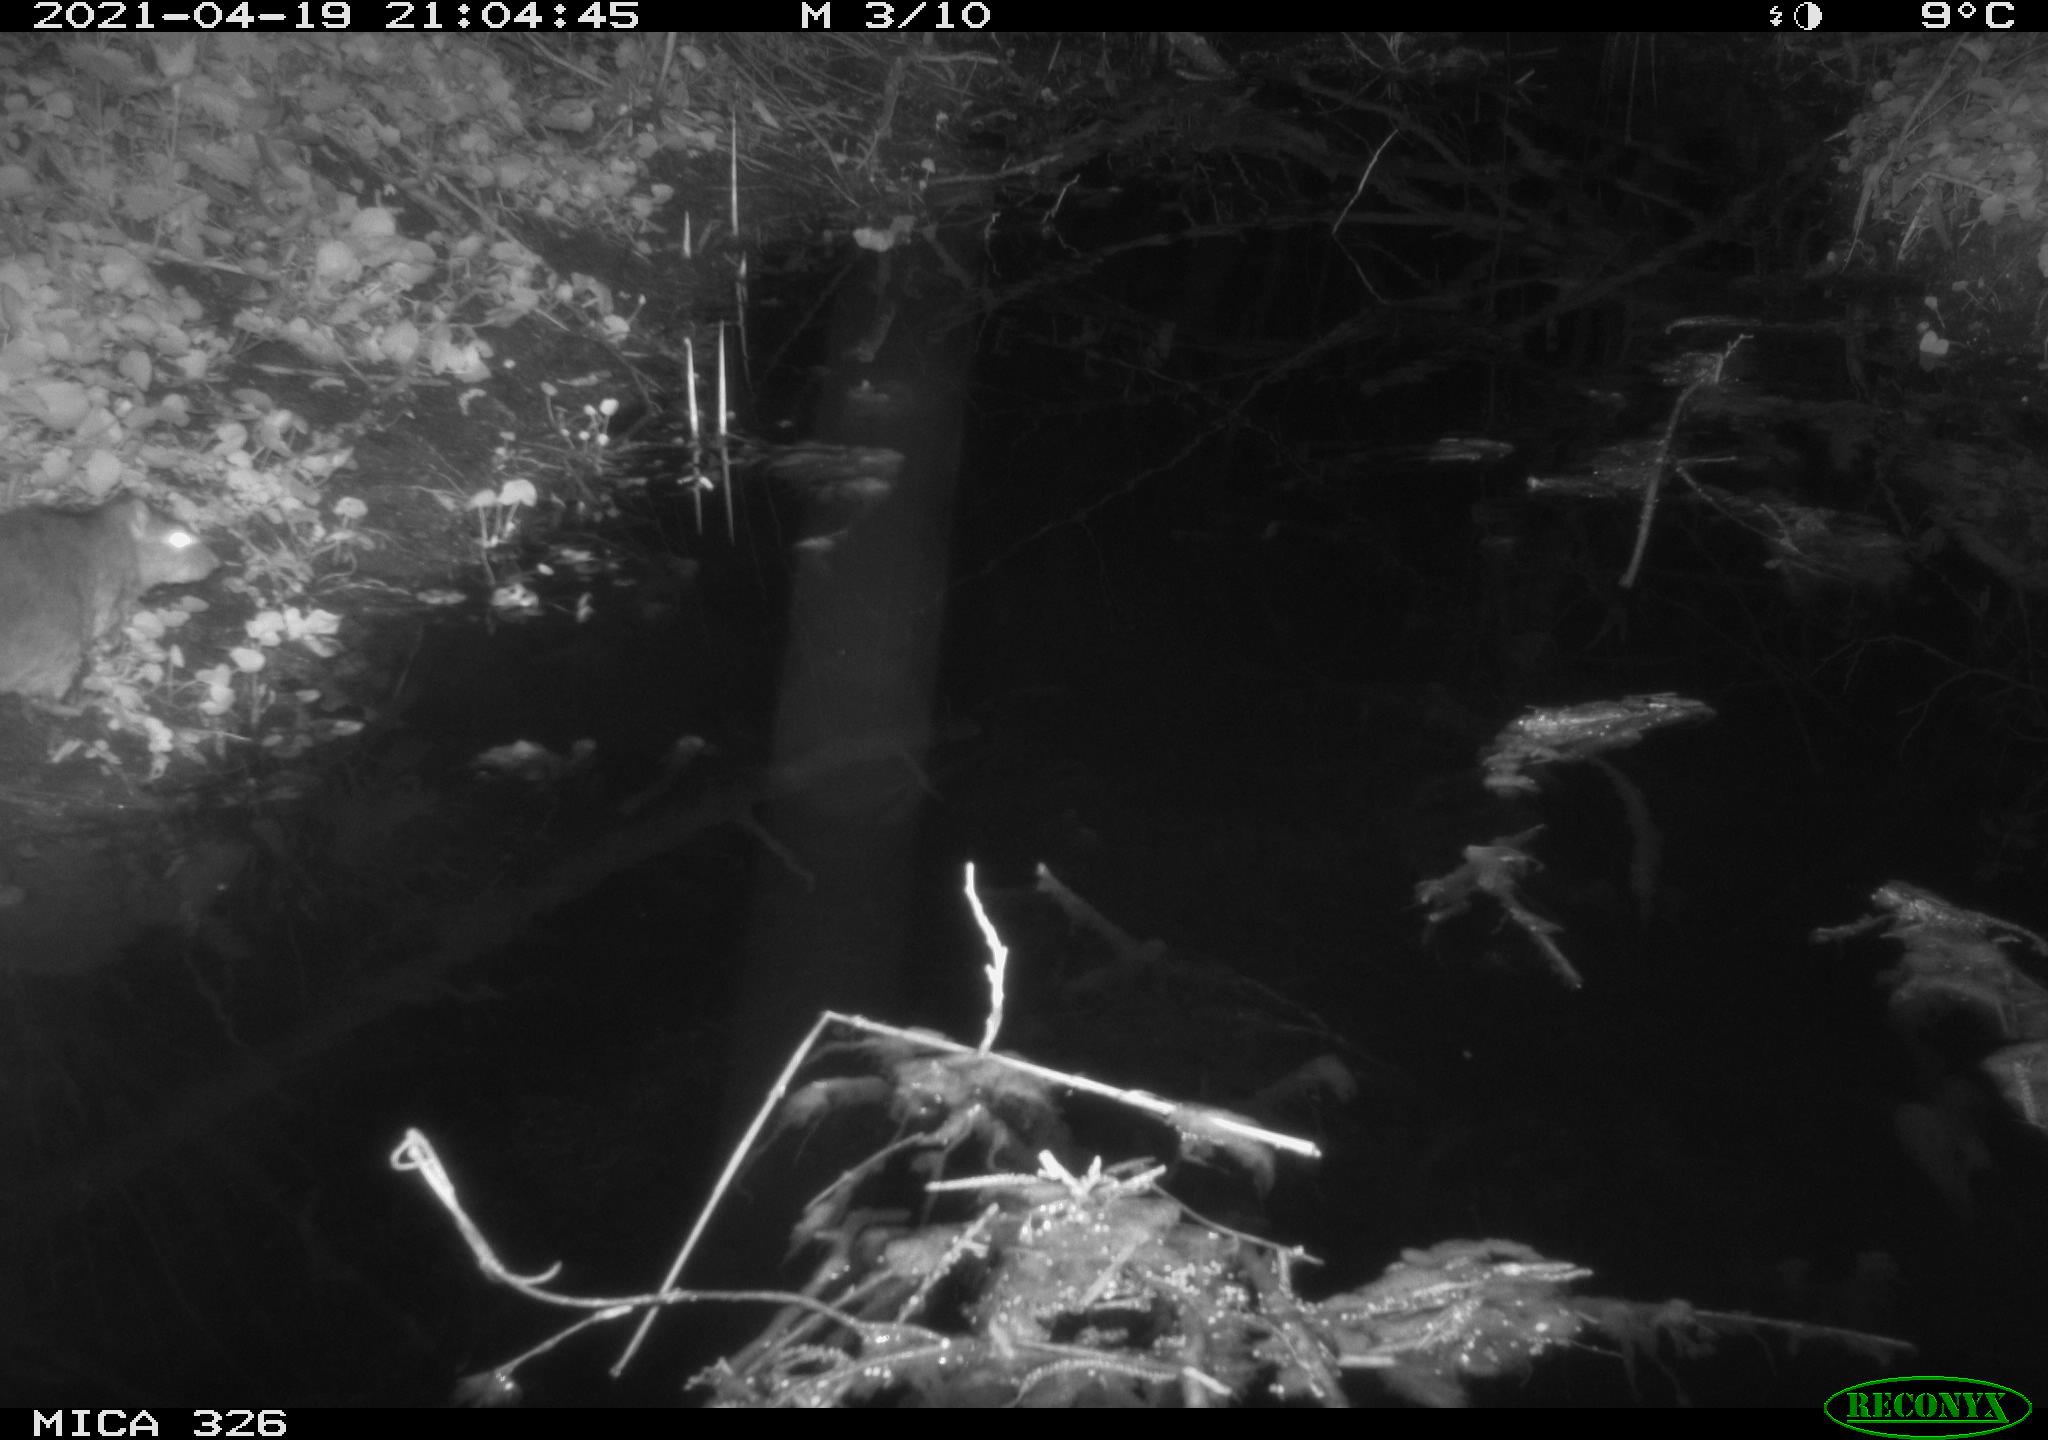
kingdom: Animalia
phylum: Chordata
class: Mammalia
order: Rodentia
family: Muridae
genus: Rattus
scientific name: Rattus norvegicus
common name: Brown rat
